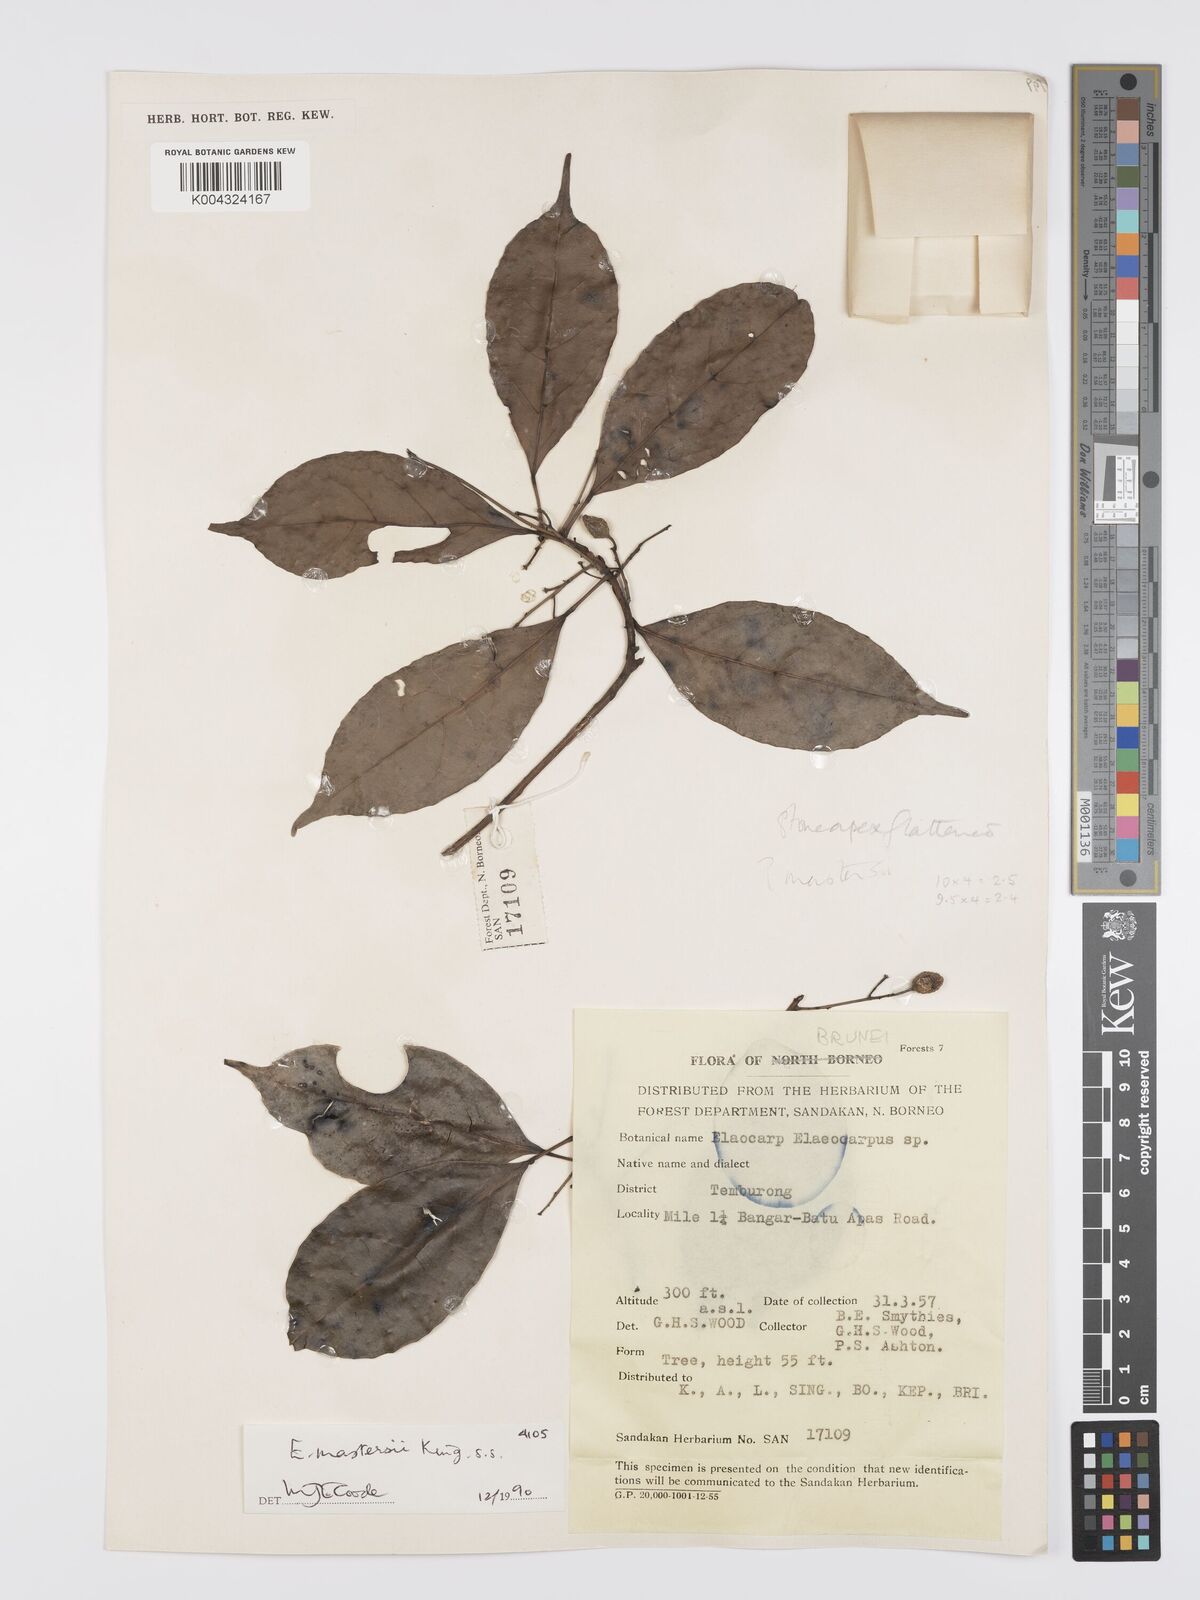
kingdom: Plantae
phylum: Tracheophyta
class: Magnoliopsida
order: Oxalidales
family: Elaeocarpaceae
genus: Elaeocarpus
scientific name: Elaeocarpus mastersii
